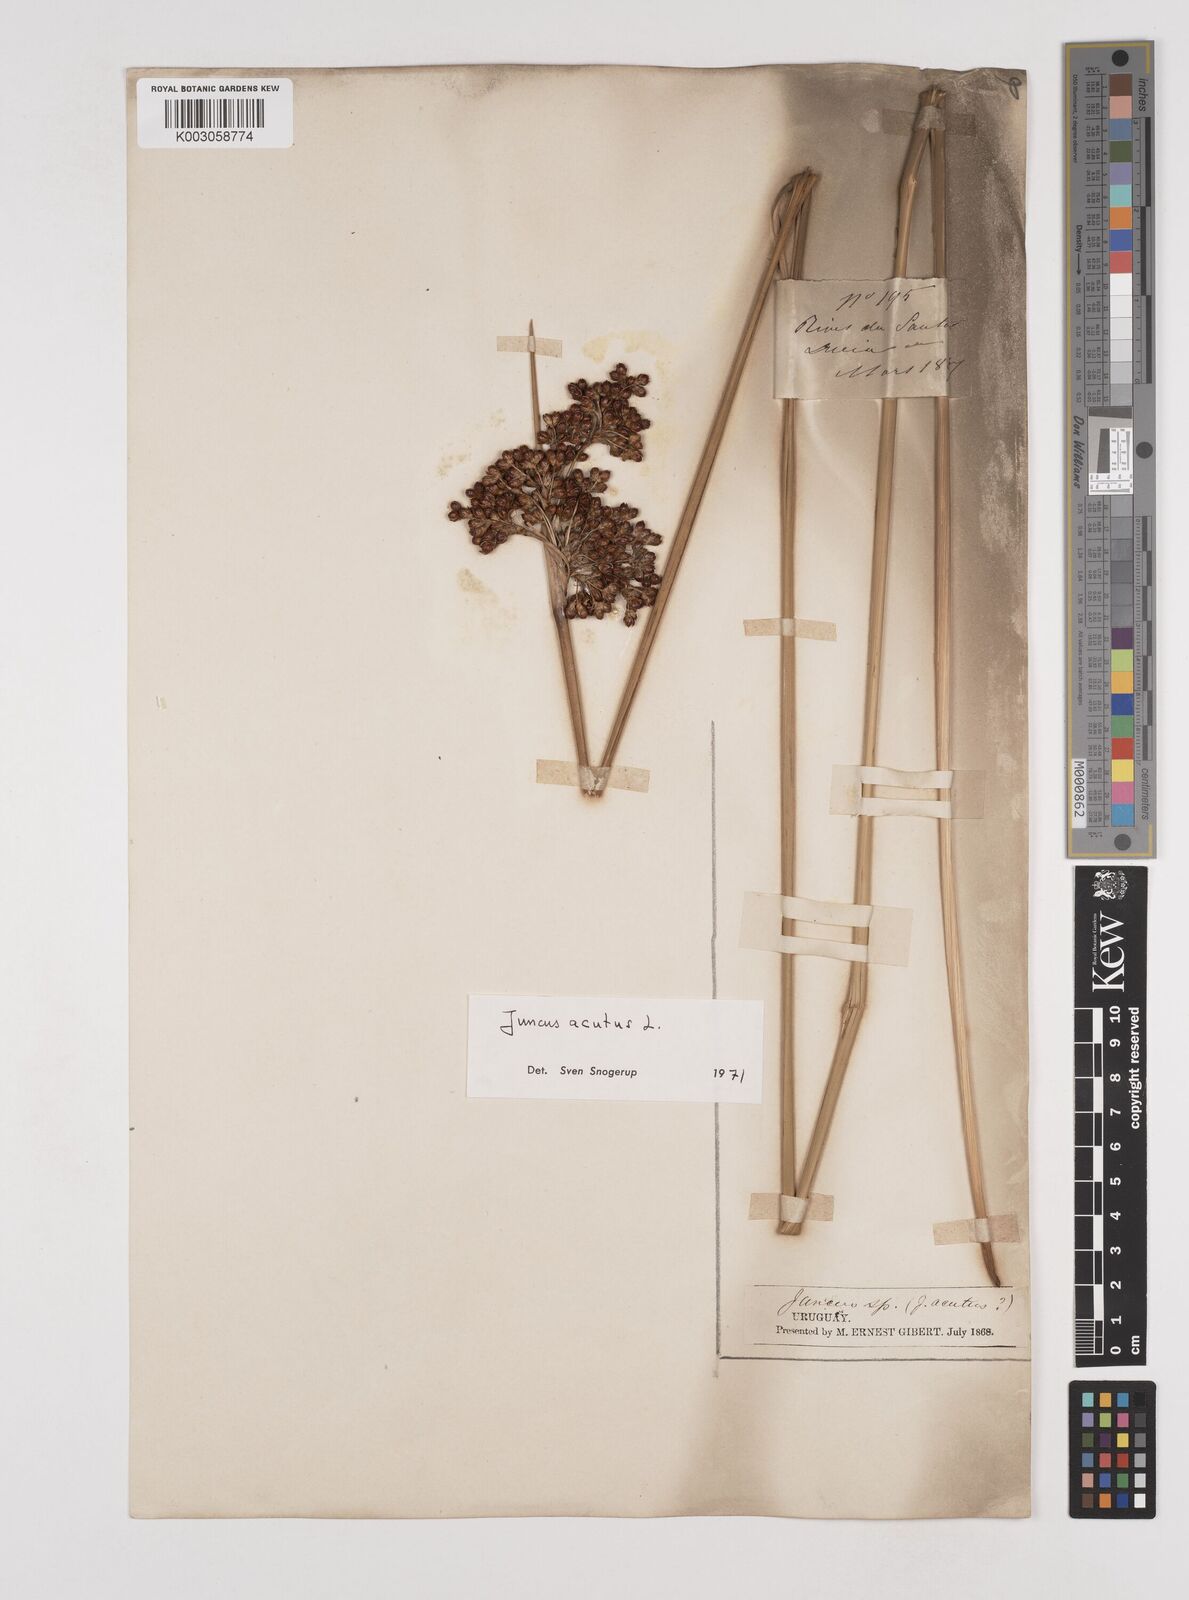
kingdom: Plantae
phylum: Tracheophyta
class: Liliopsida
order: Poales
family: Juncaceae
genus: Juncus
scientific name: Juncus acutus
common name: Sharp rush
